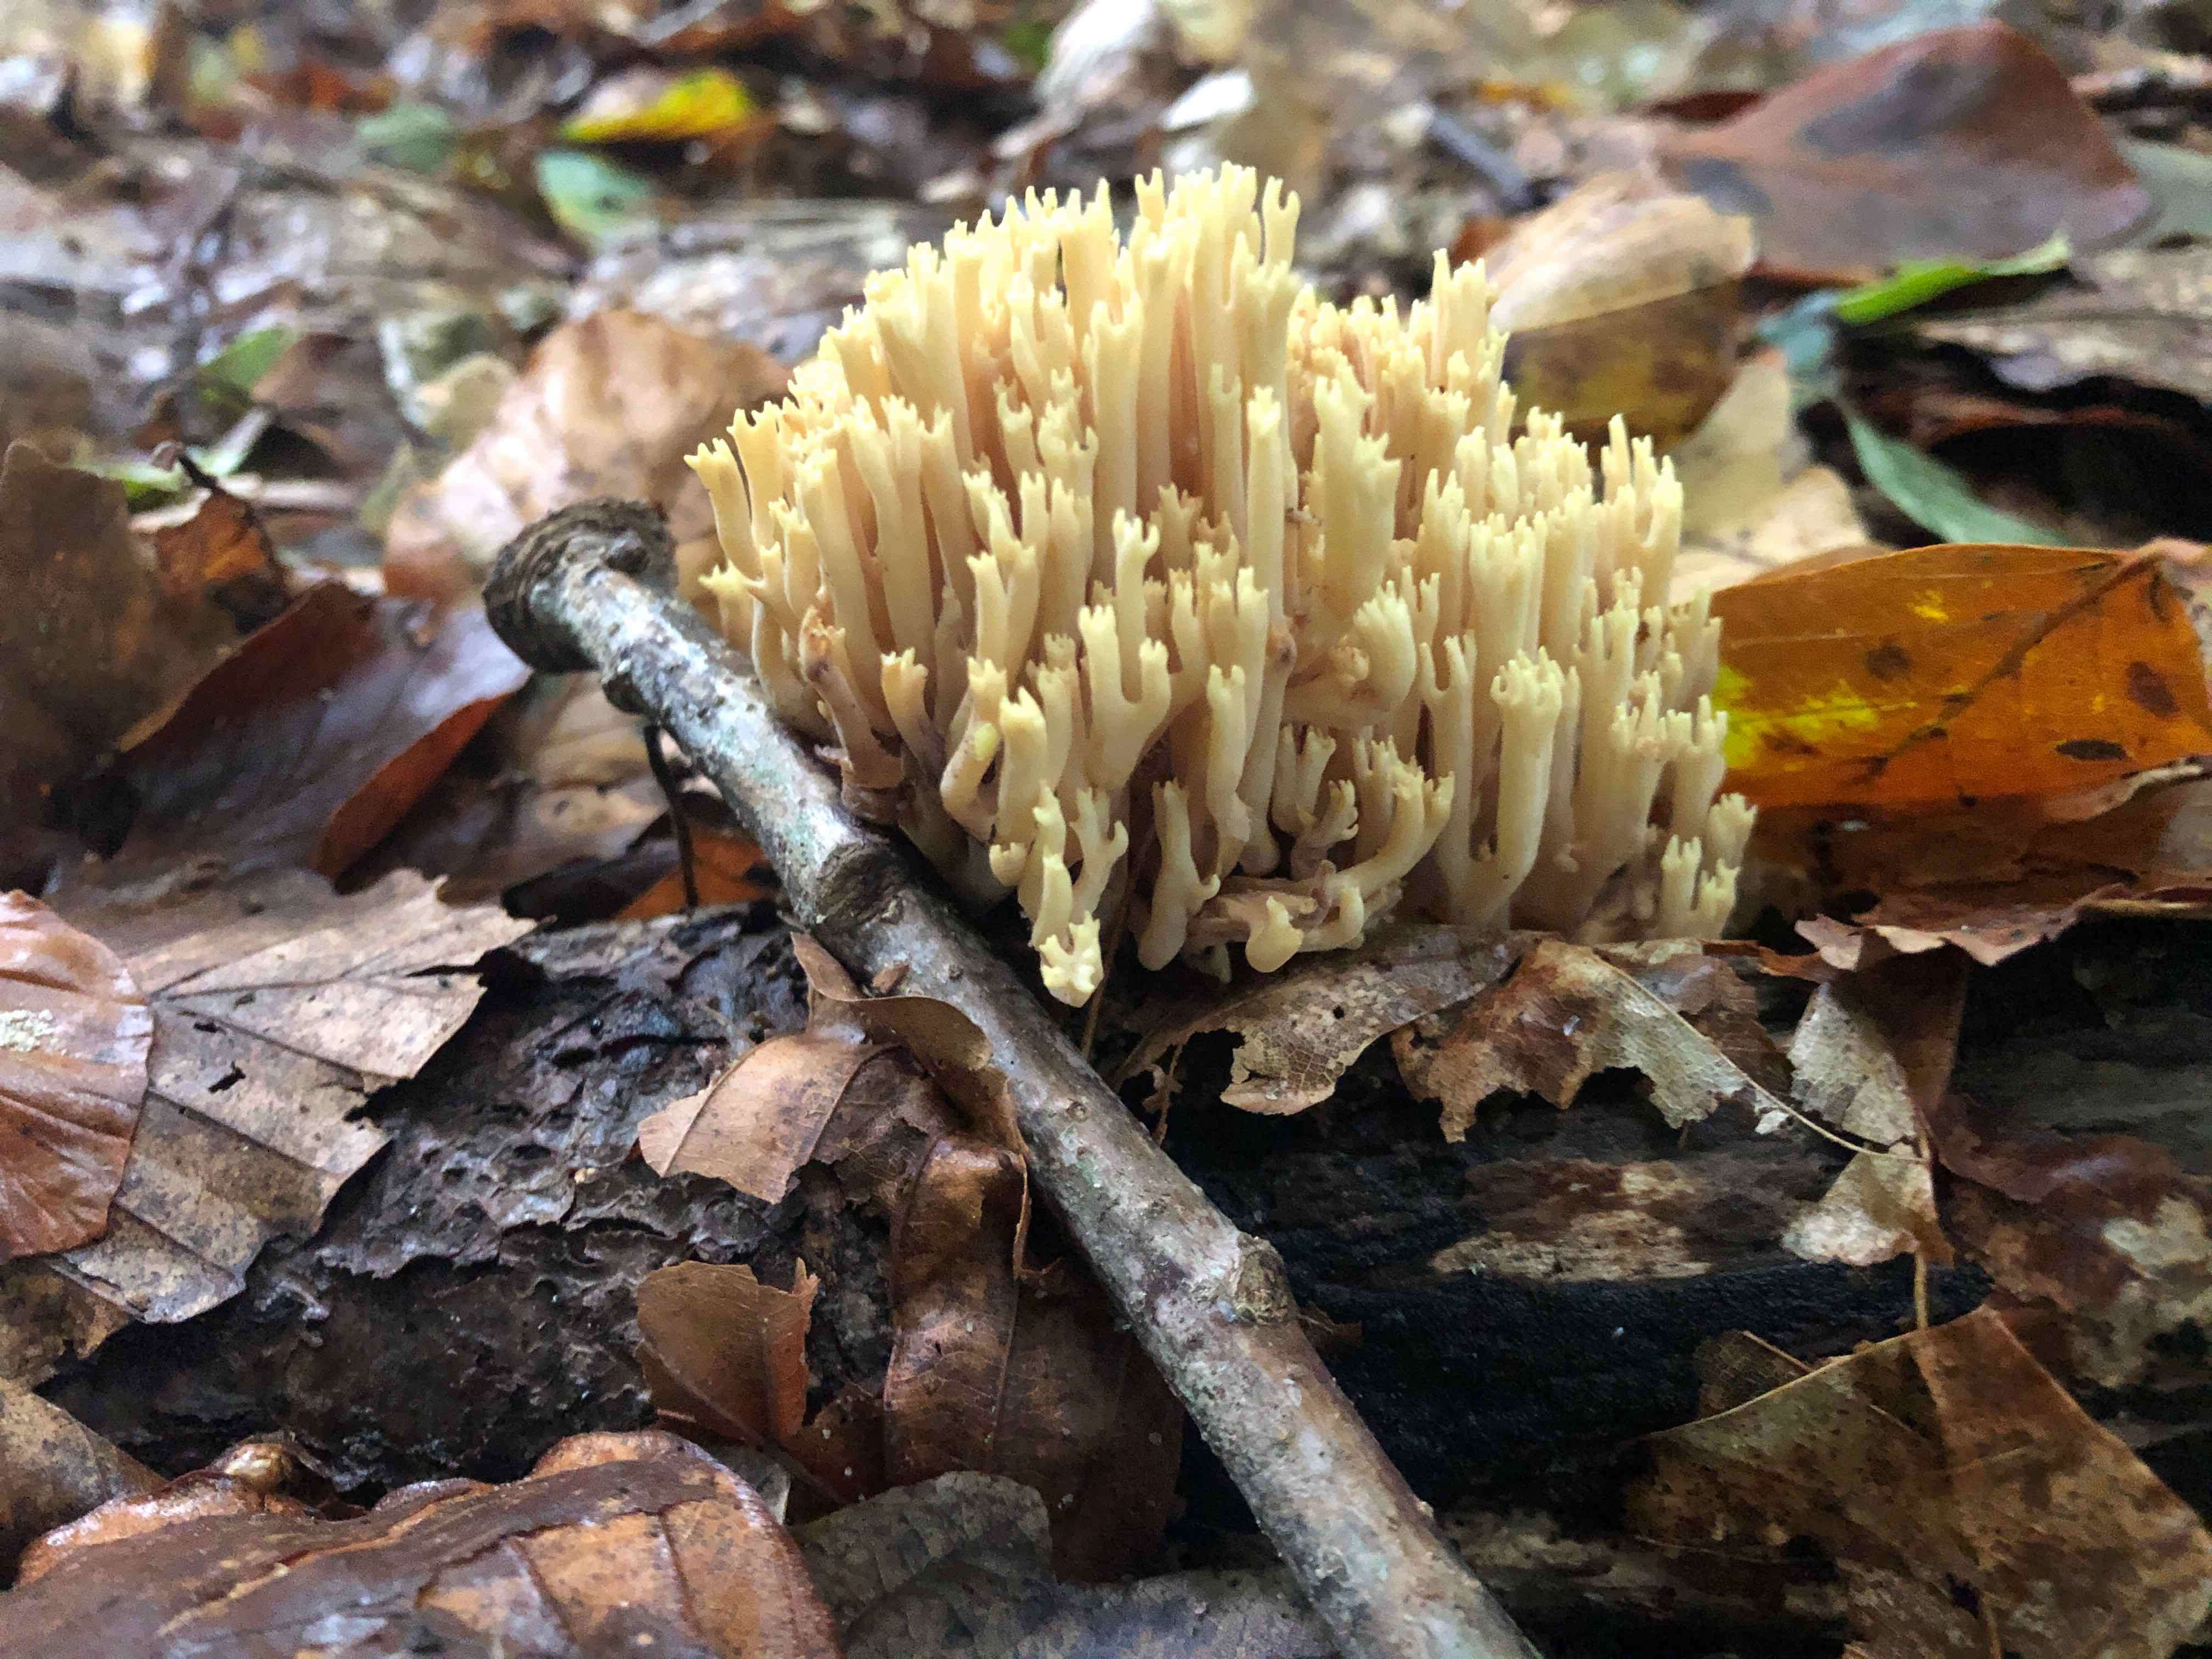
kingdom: Fungi
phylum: Basidiomycota
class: Agaricomycetes
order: Gomphales
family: Gomphaceae
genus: Ramaria
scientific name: Ramaria stricta
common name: rank koralsvamp
